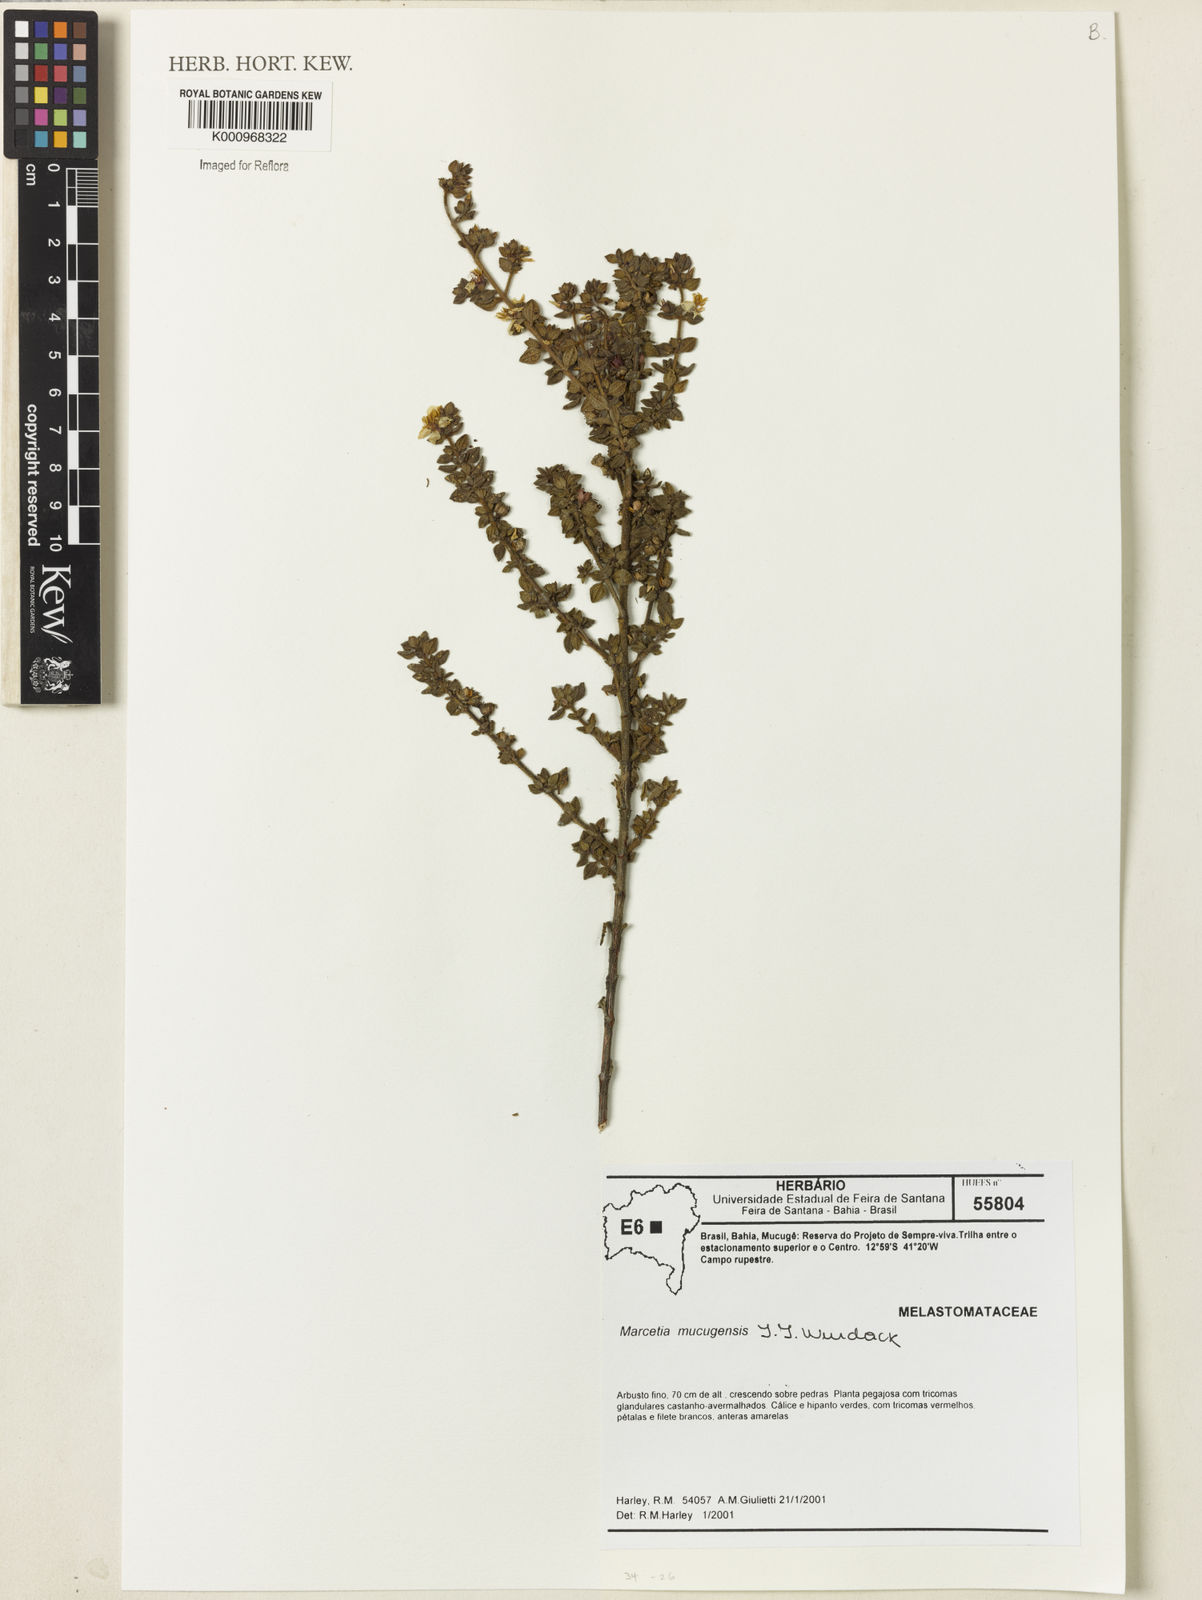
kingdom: Plantae
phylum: Tracheophyta
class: Magnoliopsida
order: Myrtales
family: Melastomataceae
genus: Marcetia
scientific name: Marcetia mucugensis
